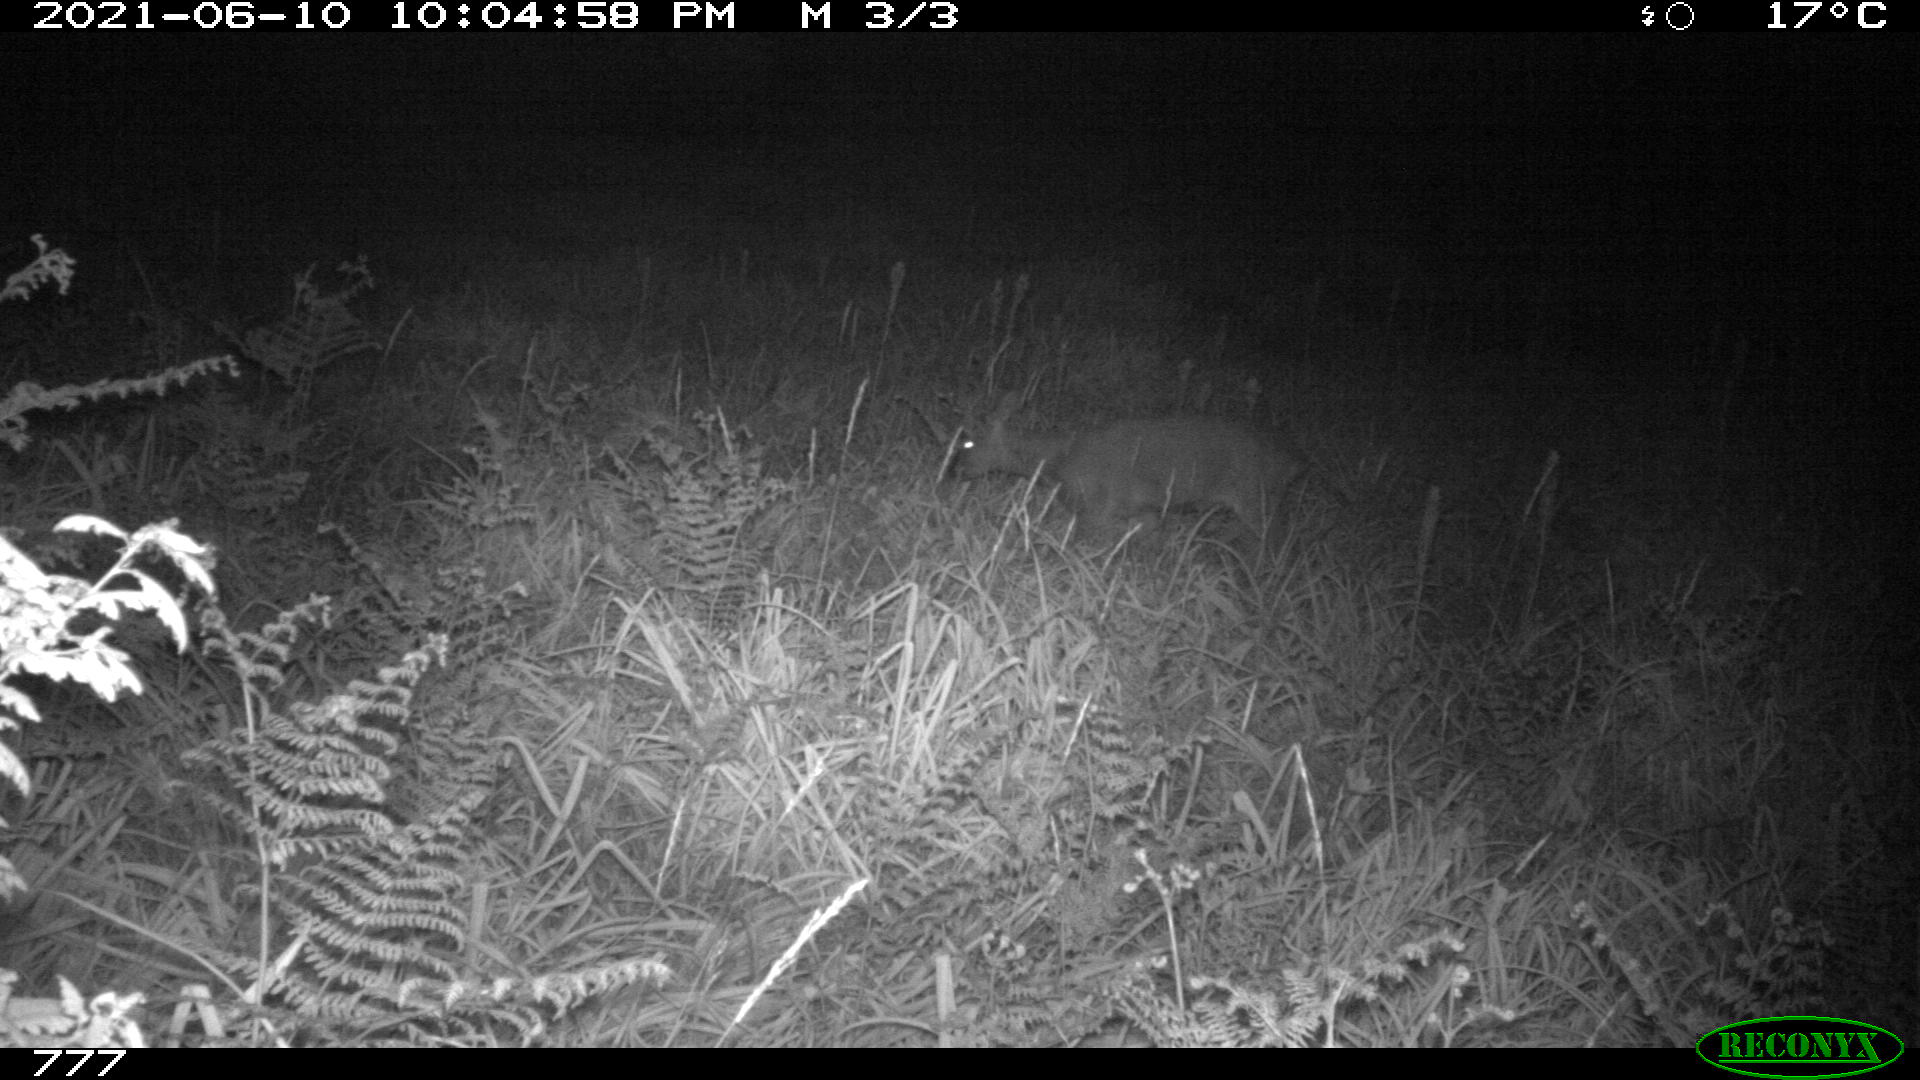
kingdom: Animalia
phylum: Chordata
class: Mammalia
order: Artiodactyla
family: Cervidae
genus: Capreolus
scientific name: Capreolus capreolus
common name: Western roe deer
